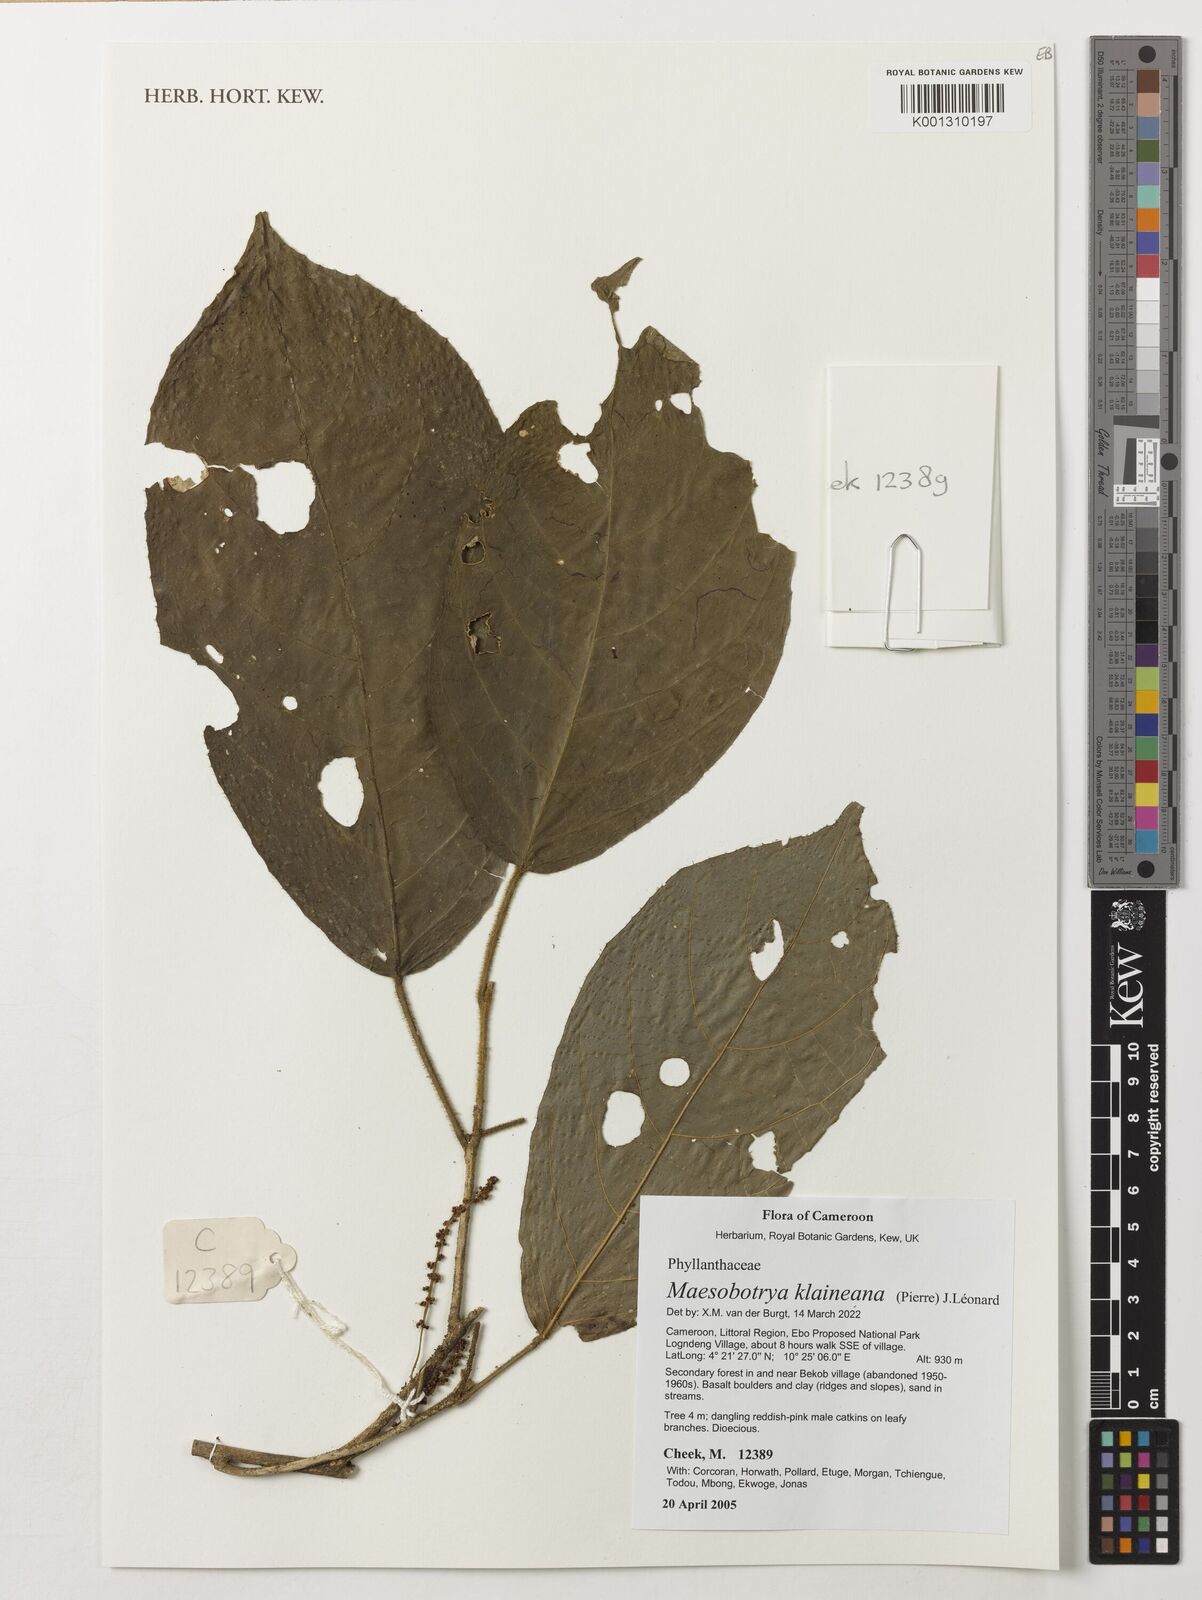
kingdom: Plantae
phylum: Tracheophyta
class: Magnoliopsida
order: Malpighiales
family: Phyllanthaceae
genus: Maesobotrya
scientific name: Maesobotrya klaineana
